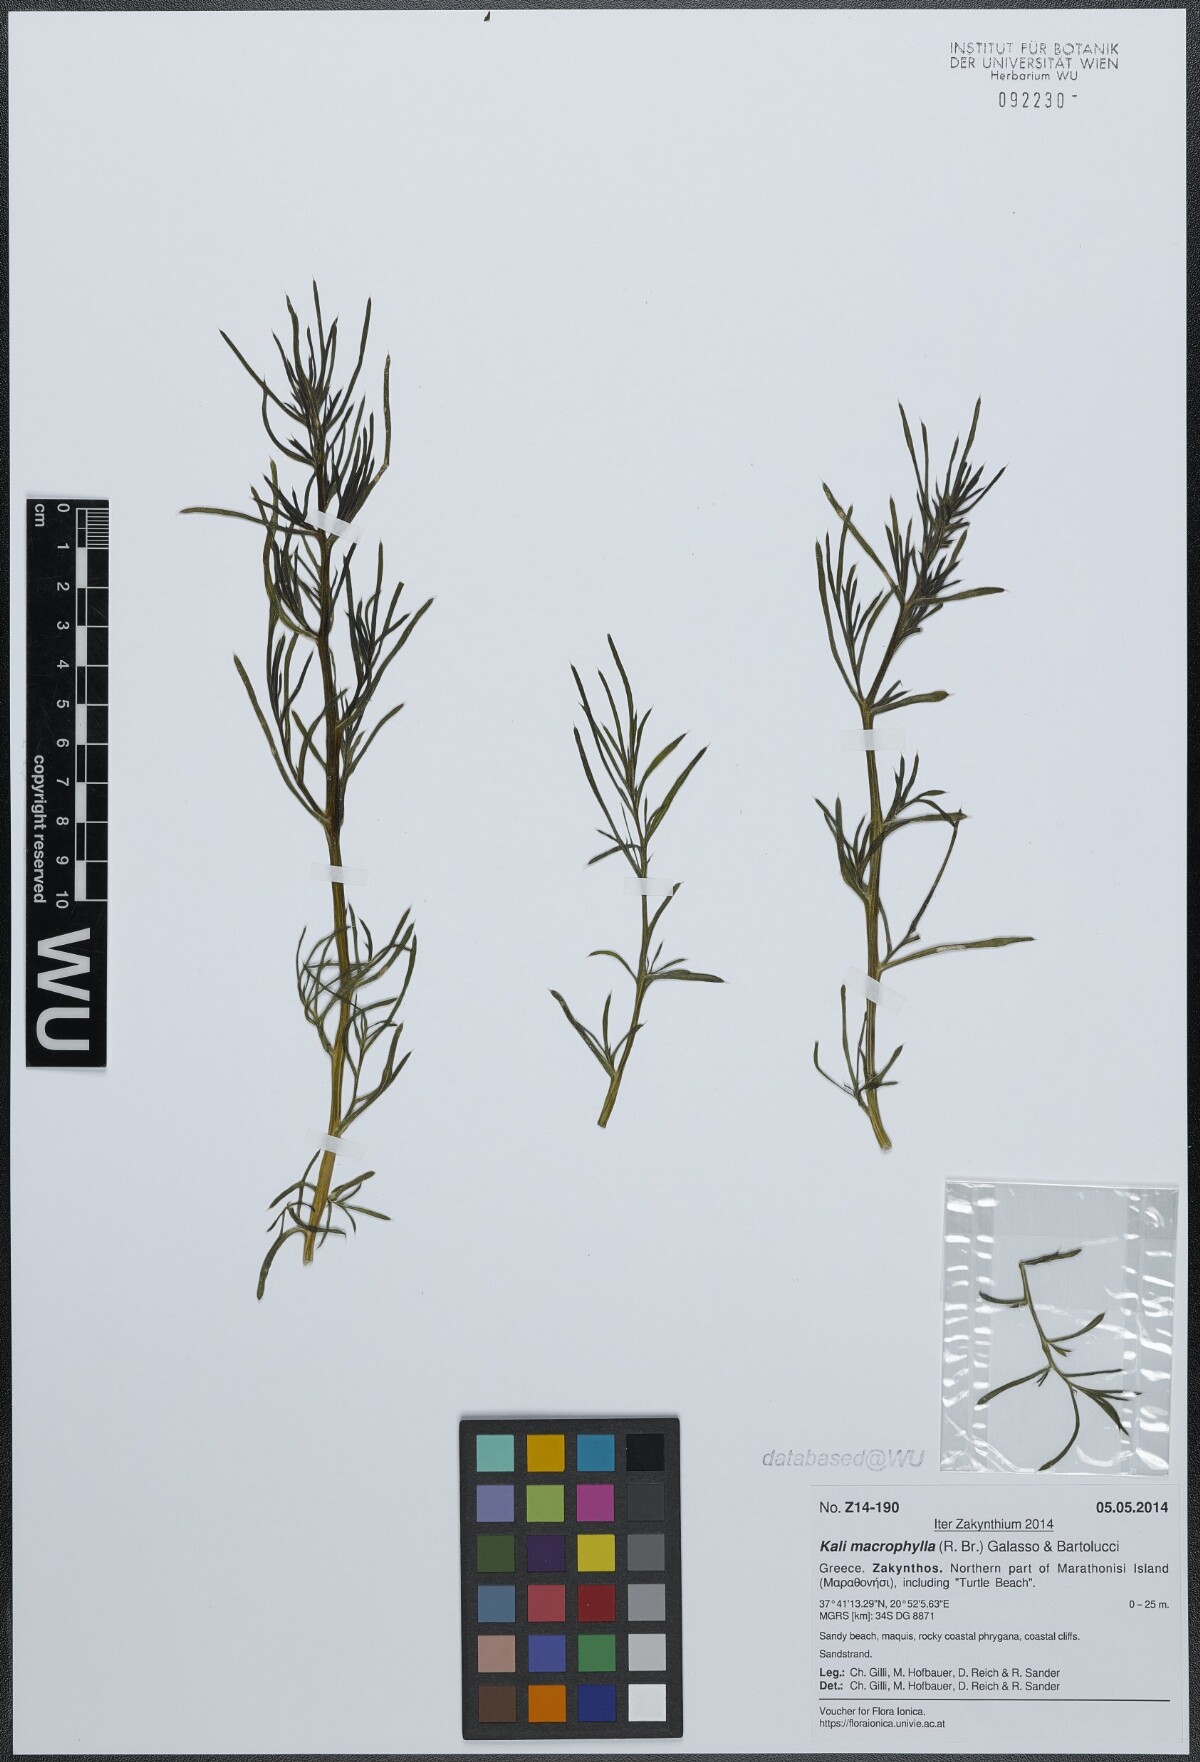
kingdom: Plantae
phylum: Tracheophyta
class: Magnoliopsida
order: Caryophyllales
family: Amaranthaceae
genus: Salsola
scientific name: Salsola australis
